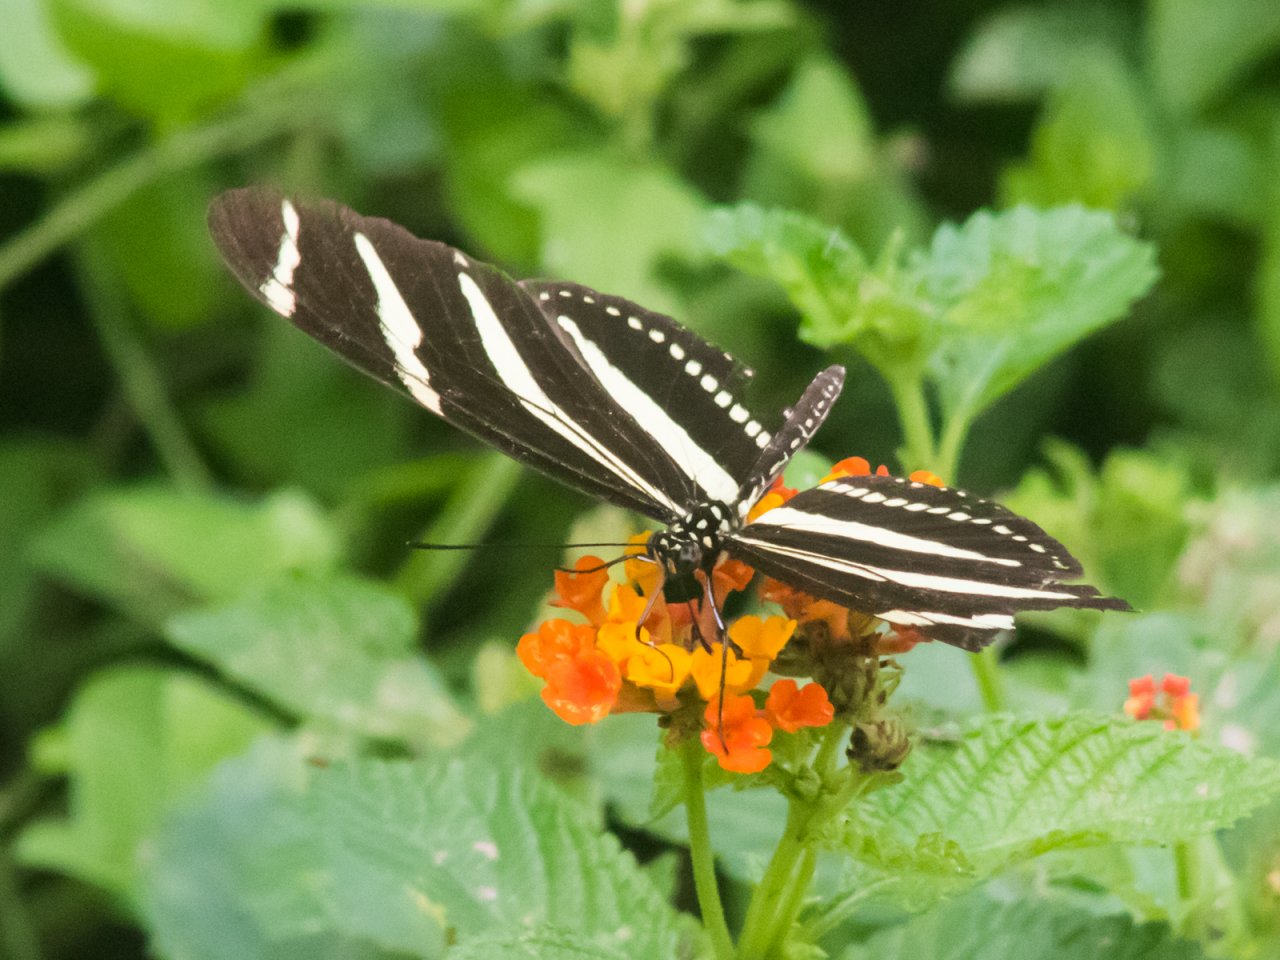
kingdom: Animalia
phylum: Arthropoda
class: Insecta
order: Lepidoptera
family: Nymphalidae
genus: Heliconius
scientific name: Heliconius charithonia
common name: Zebra Longwing
